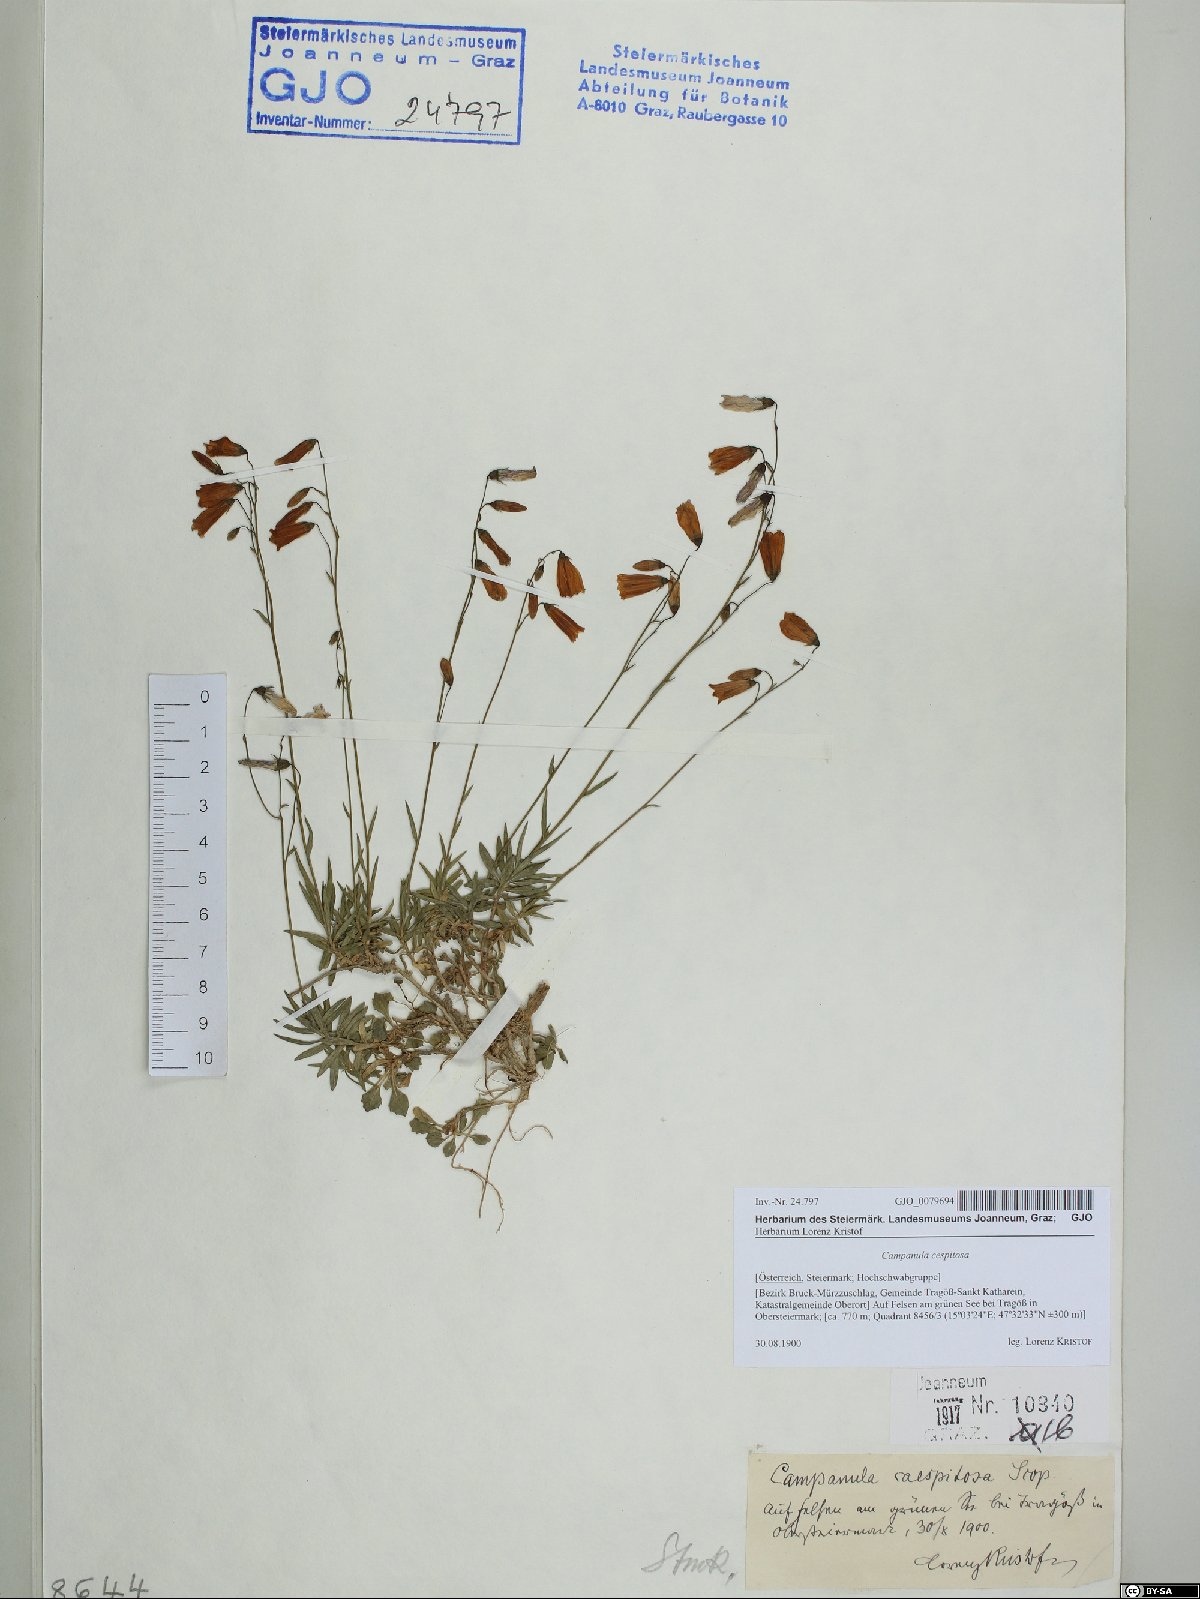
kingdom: Plantae
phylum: Tracheophyta
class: Magnoliopsida
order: Asterales
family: Campanulaceae
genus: Campanula
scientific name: Campanula cespitosa
